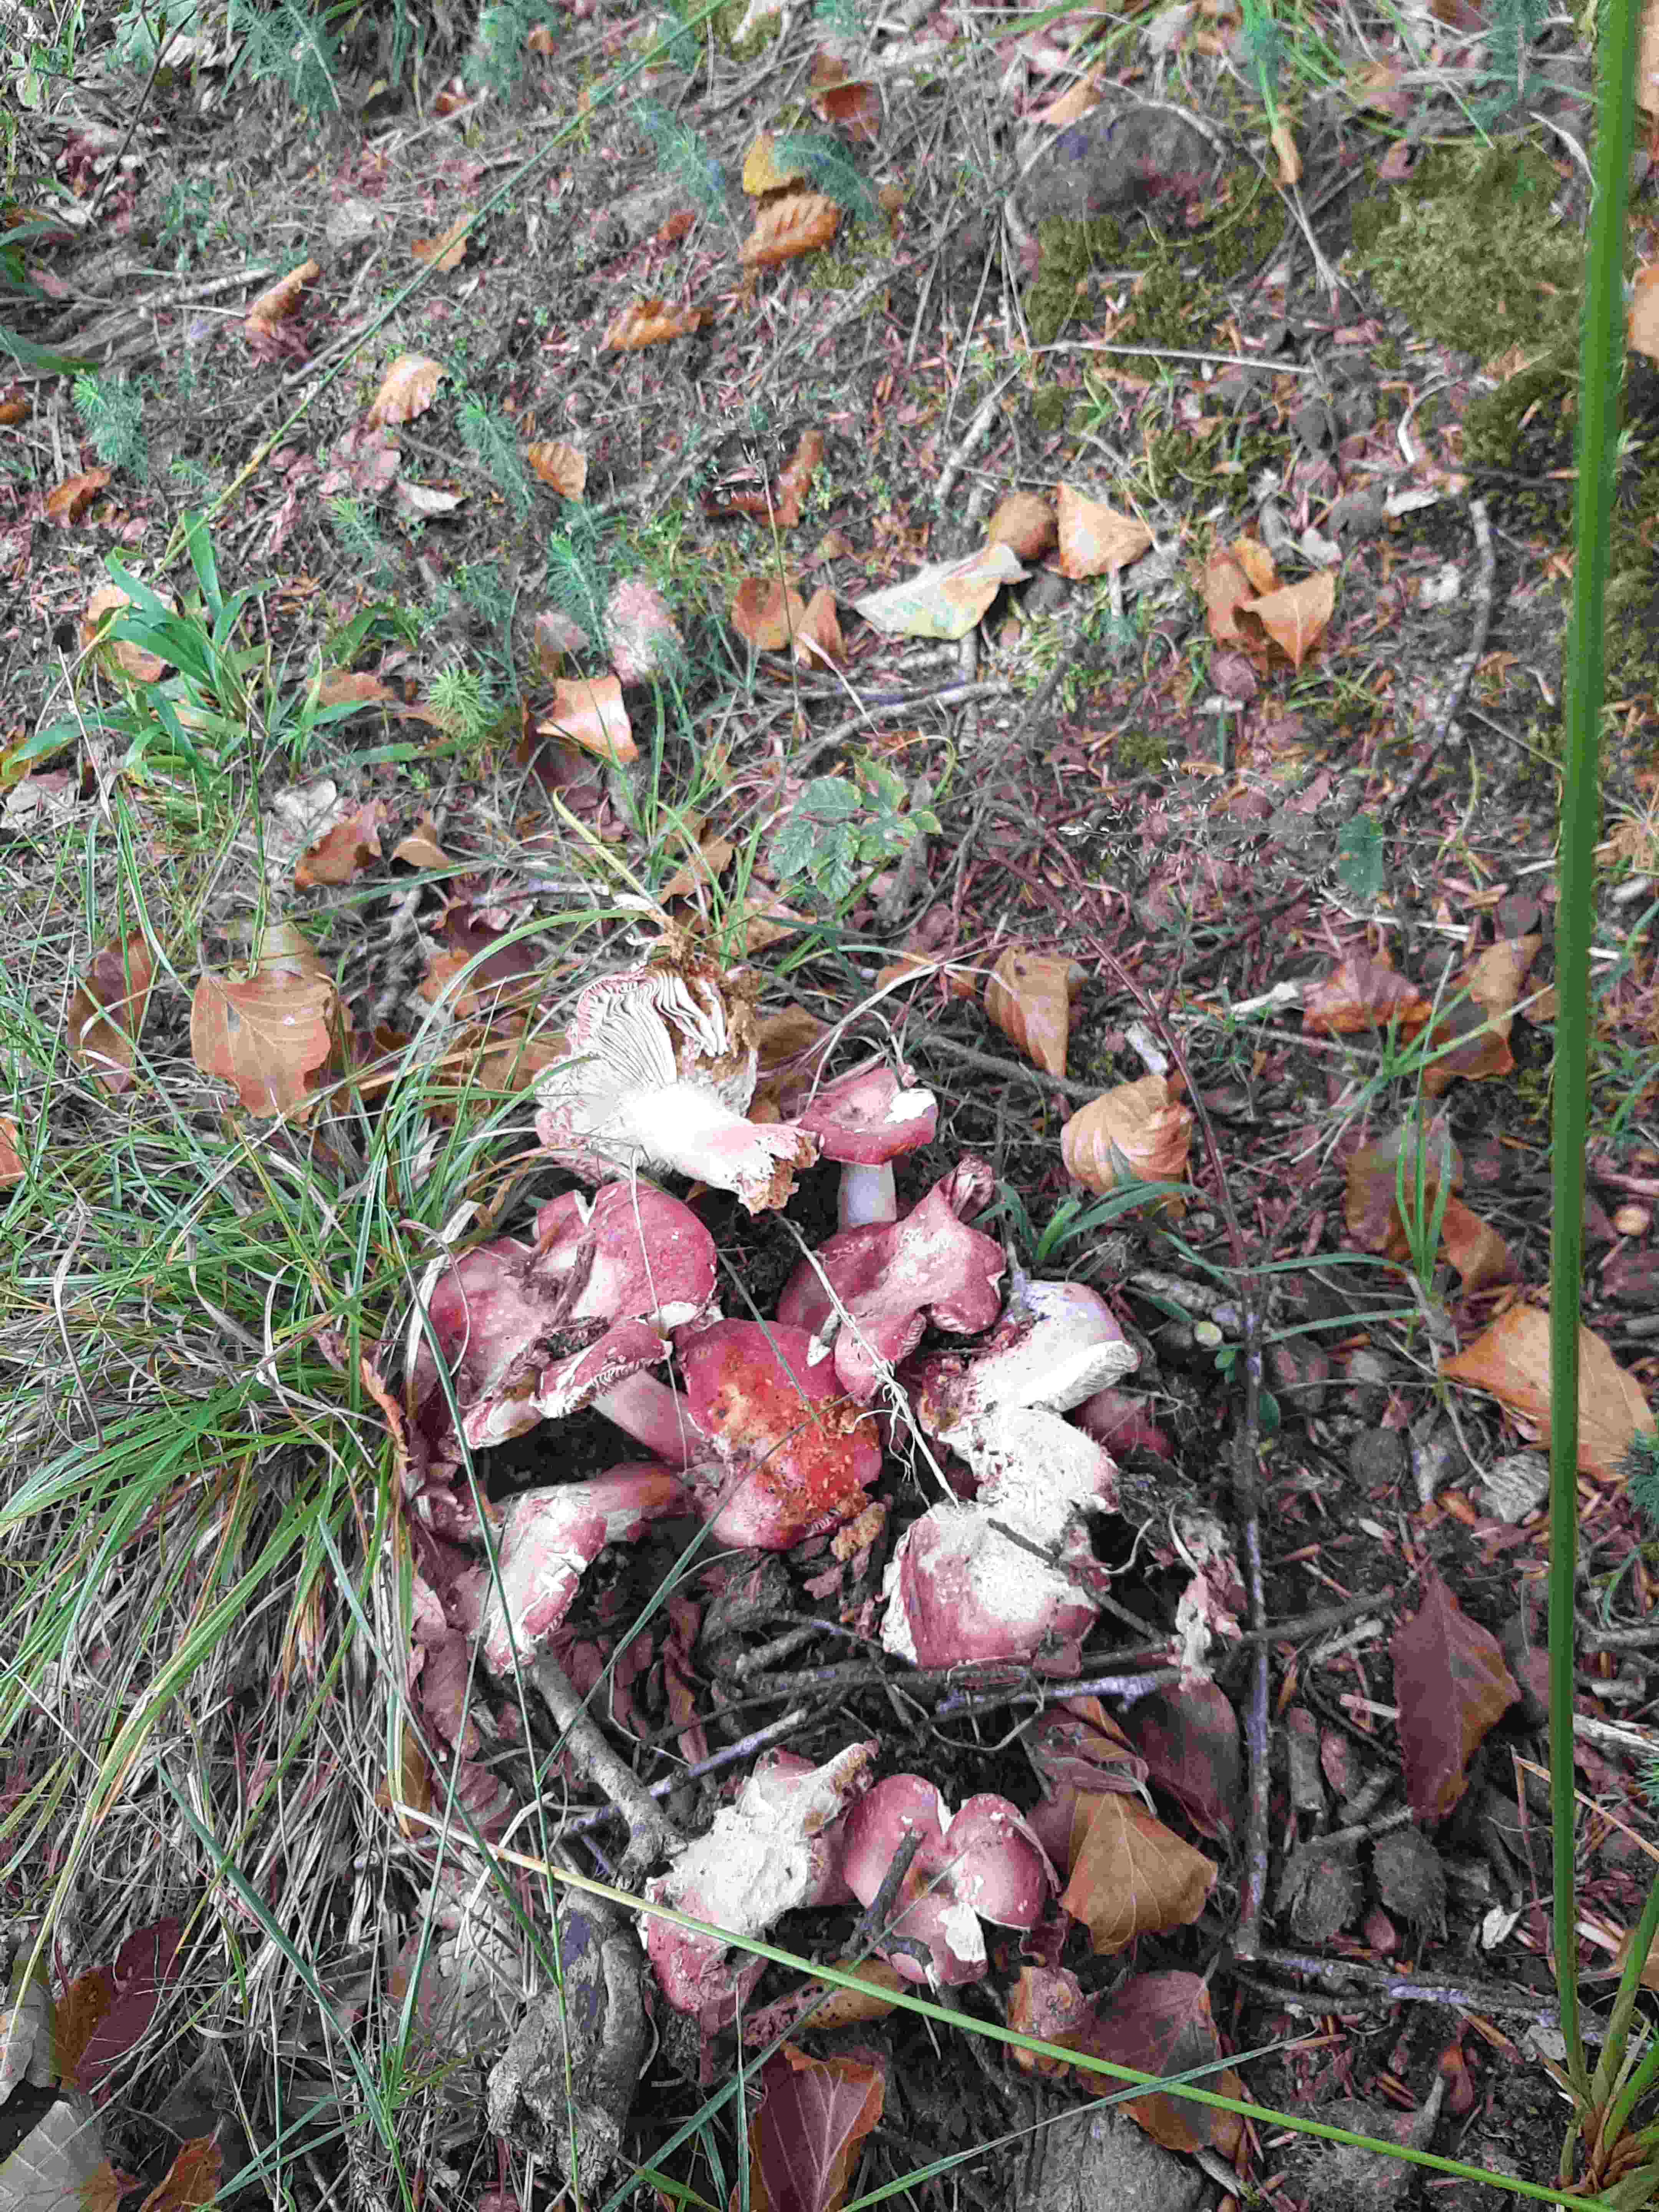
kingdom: Fungi
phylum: Basidiomycota
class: Agaricomycetes
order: Russulales
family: Russulaceae
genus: Russula
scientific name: Russula
